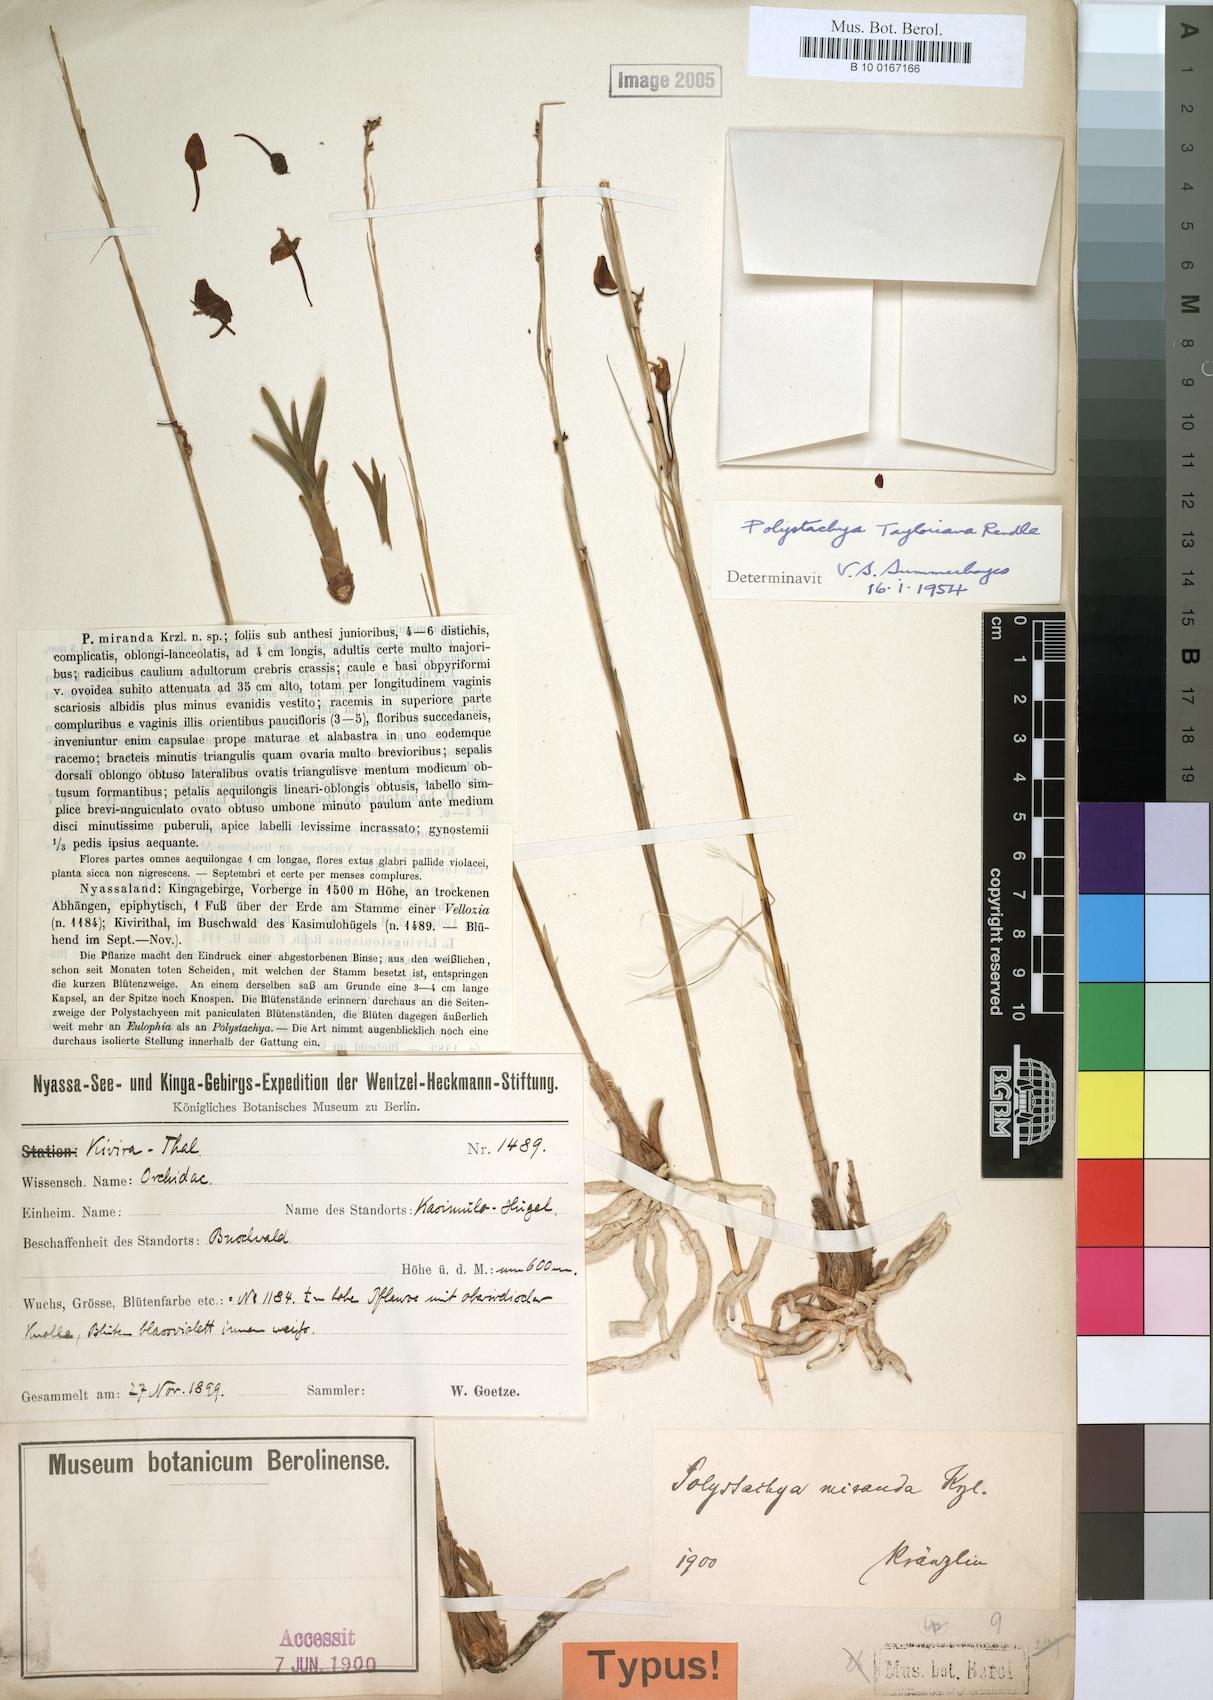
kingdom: Plantae
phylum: Tracheophyta
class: Liliopsida
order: Asparagales
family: Orchidaceae
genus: Polystachya
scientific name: Polystachya dendrobiiflora
